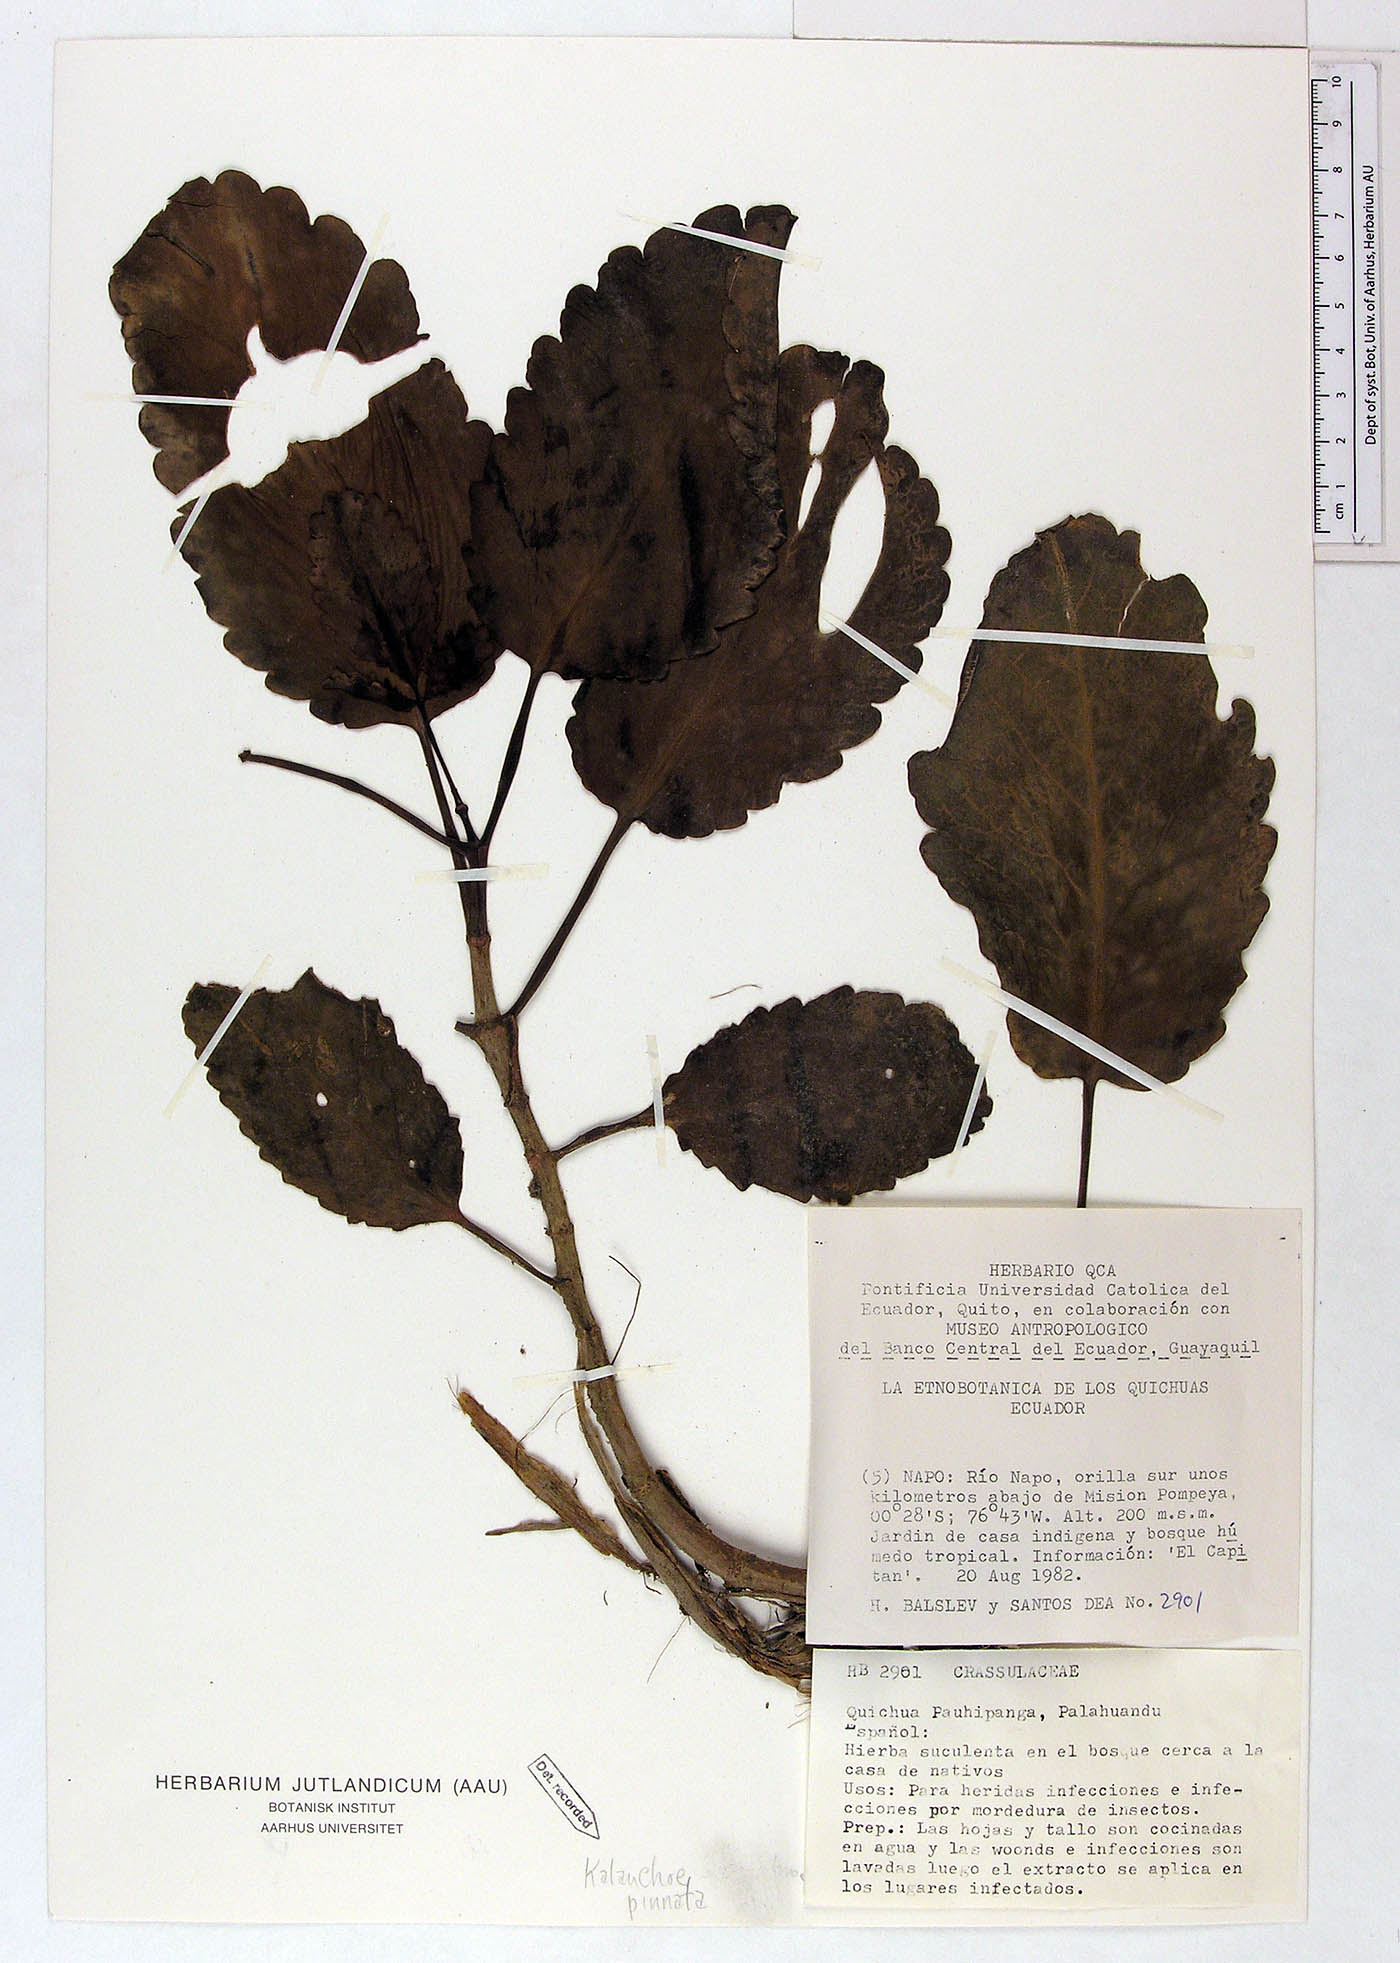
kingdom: Plantae
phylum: Tracheophyta
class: Magnoliopsida
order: Saxifragales
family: Crassulaceae
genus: Kalanchoe
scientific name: Kalanchoe pinnata
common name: Cathedral bells
